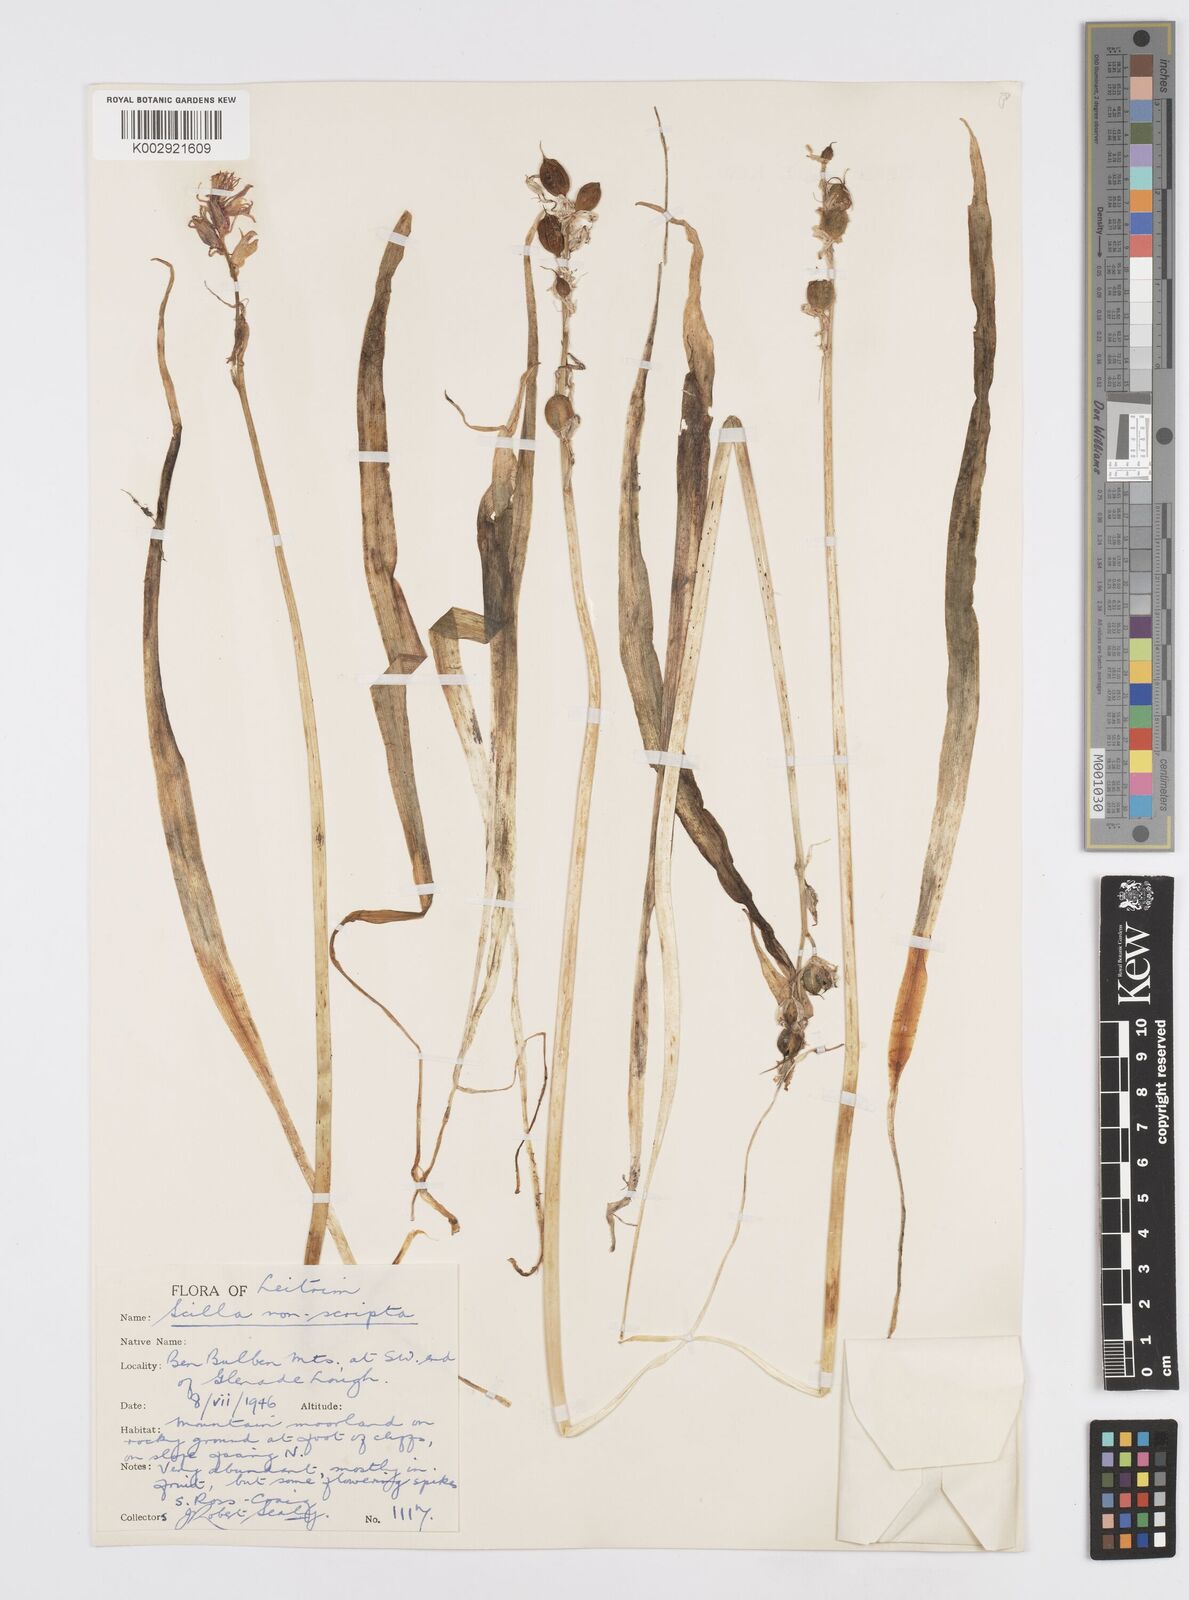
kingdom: Plantae
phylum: Tracheophyta
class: Liliopsida
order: Asparagales
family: Asparagaceae
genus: Hyacinthoides
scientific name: Hyacinthoides non-scripta
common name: Bluebell
